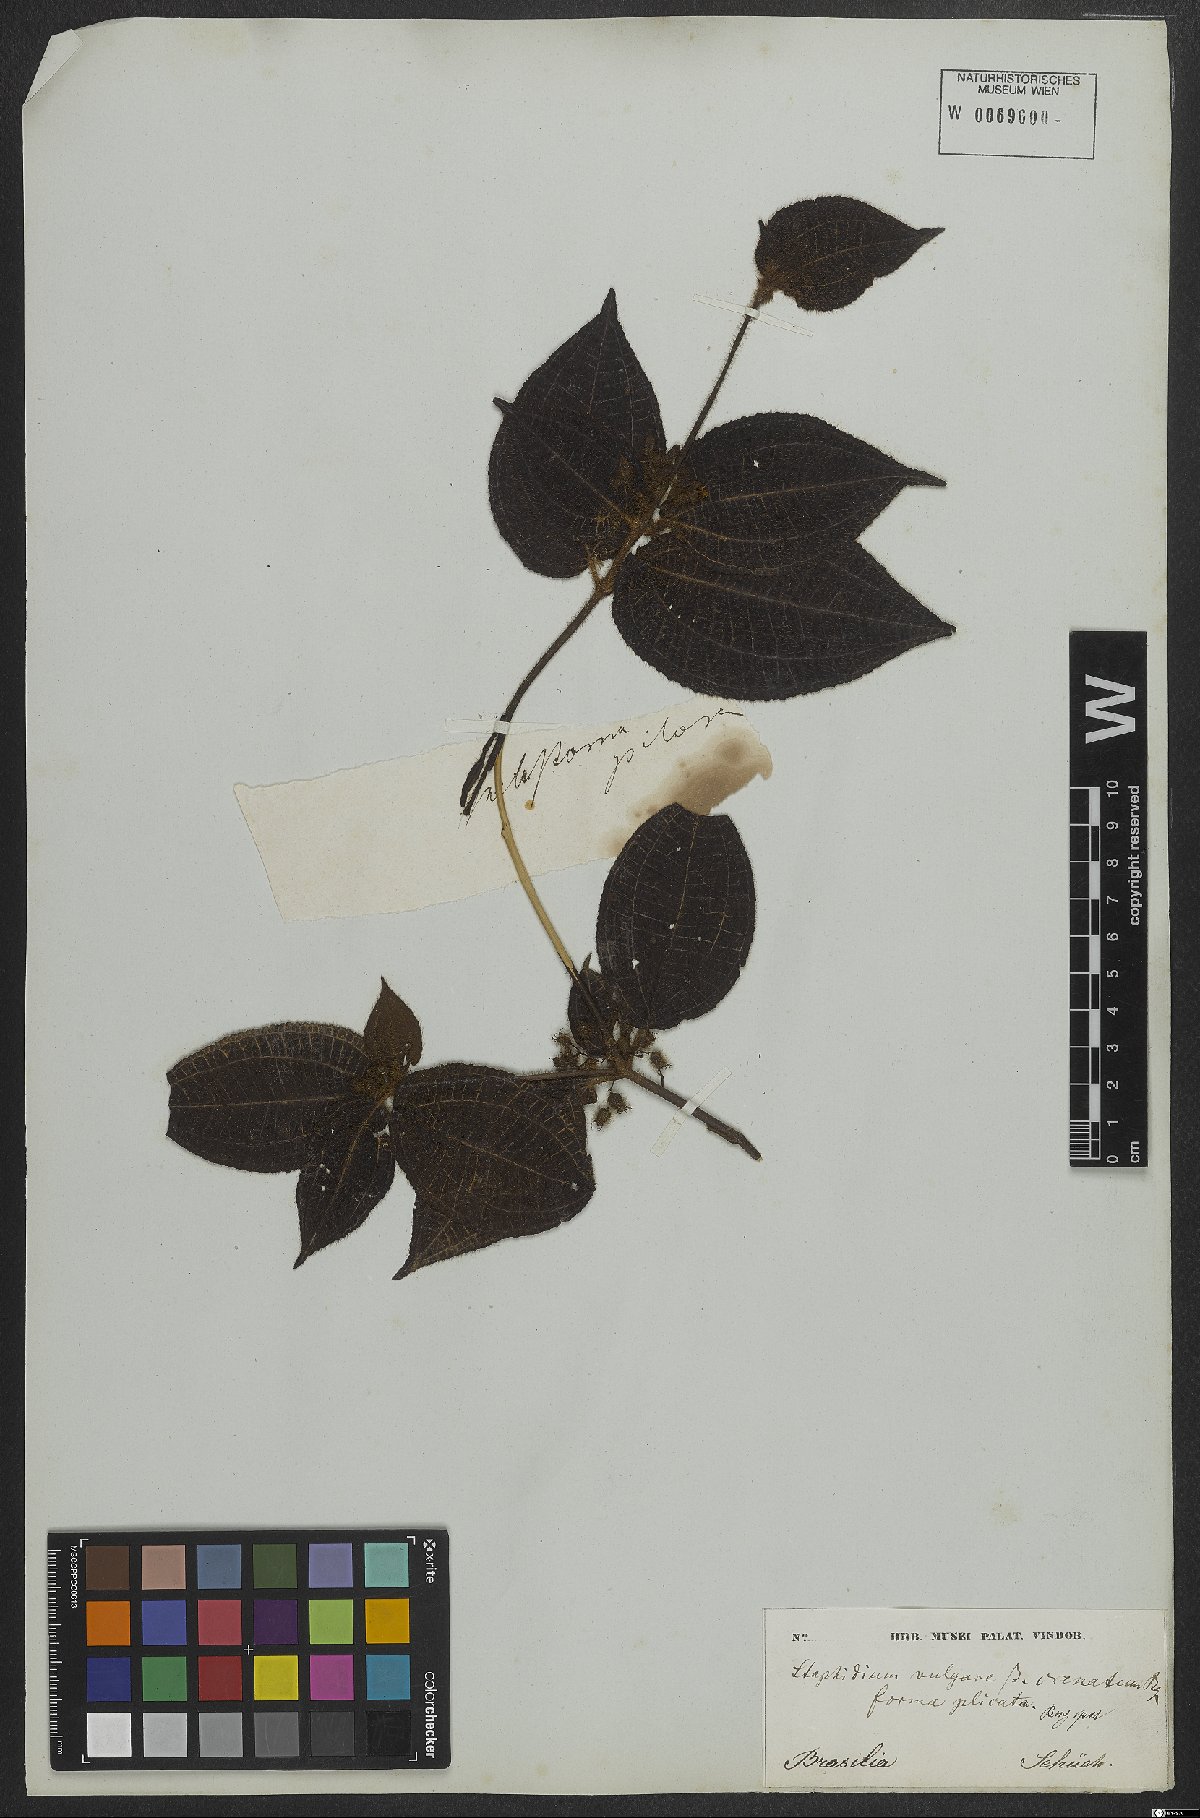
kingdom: Plantae
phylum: Tracheophyta
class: Magnoliopsida
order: Myrtales
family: Melastomataceae
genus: Miconia
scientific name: Miconia crenata
